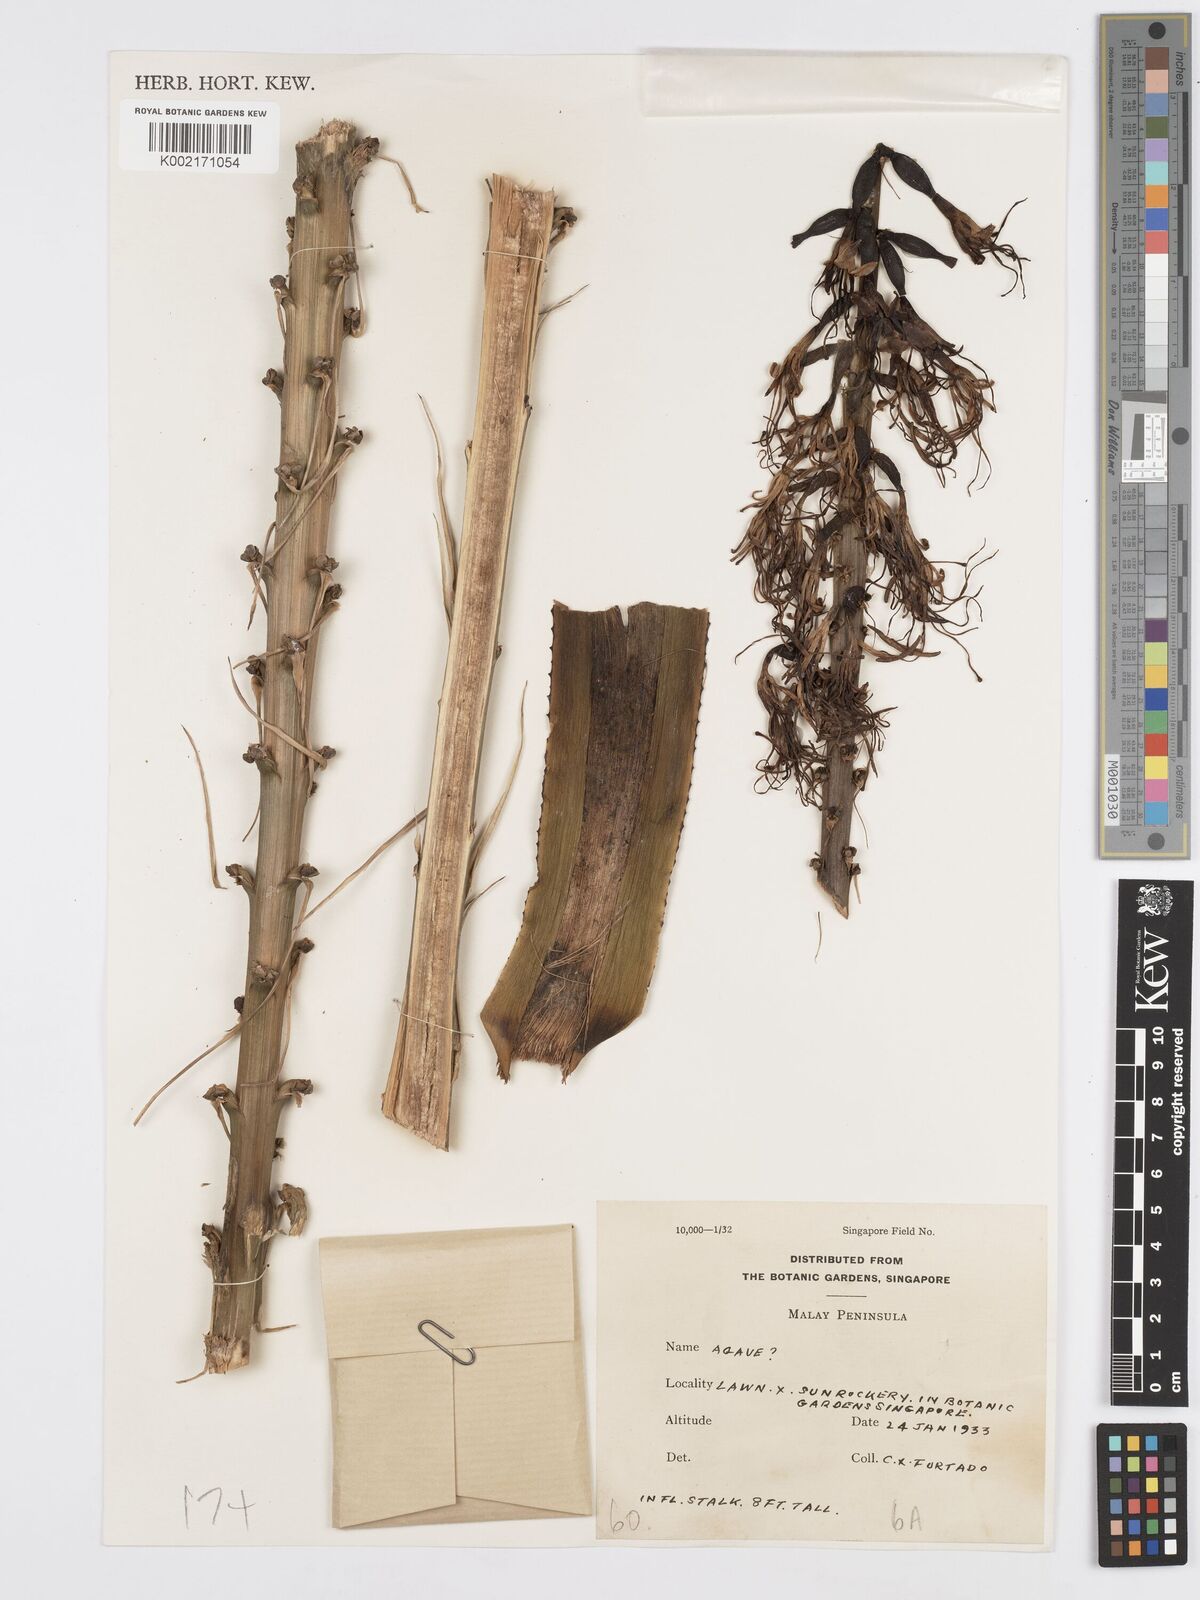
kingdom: Plantae
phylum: Tracheophyta
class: Liliopsida
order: Asparagales
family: Asparagaceae
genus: Agave
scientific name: Agave
